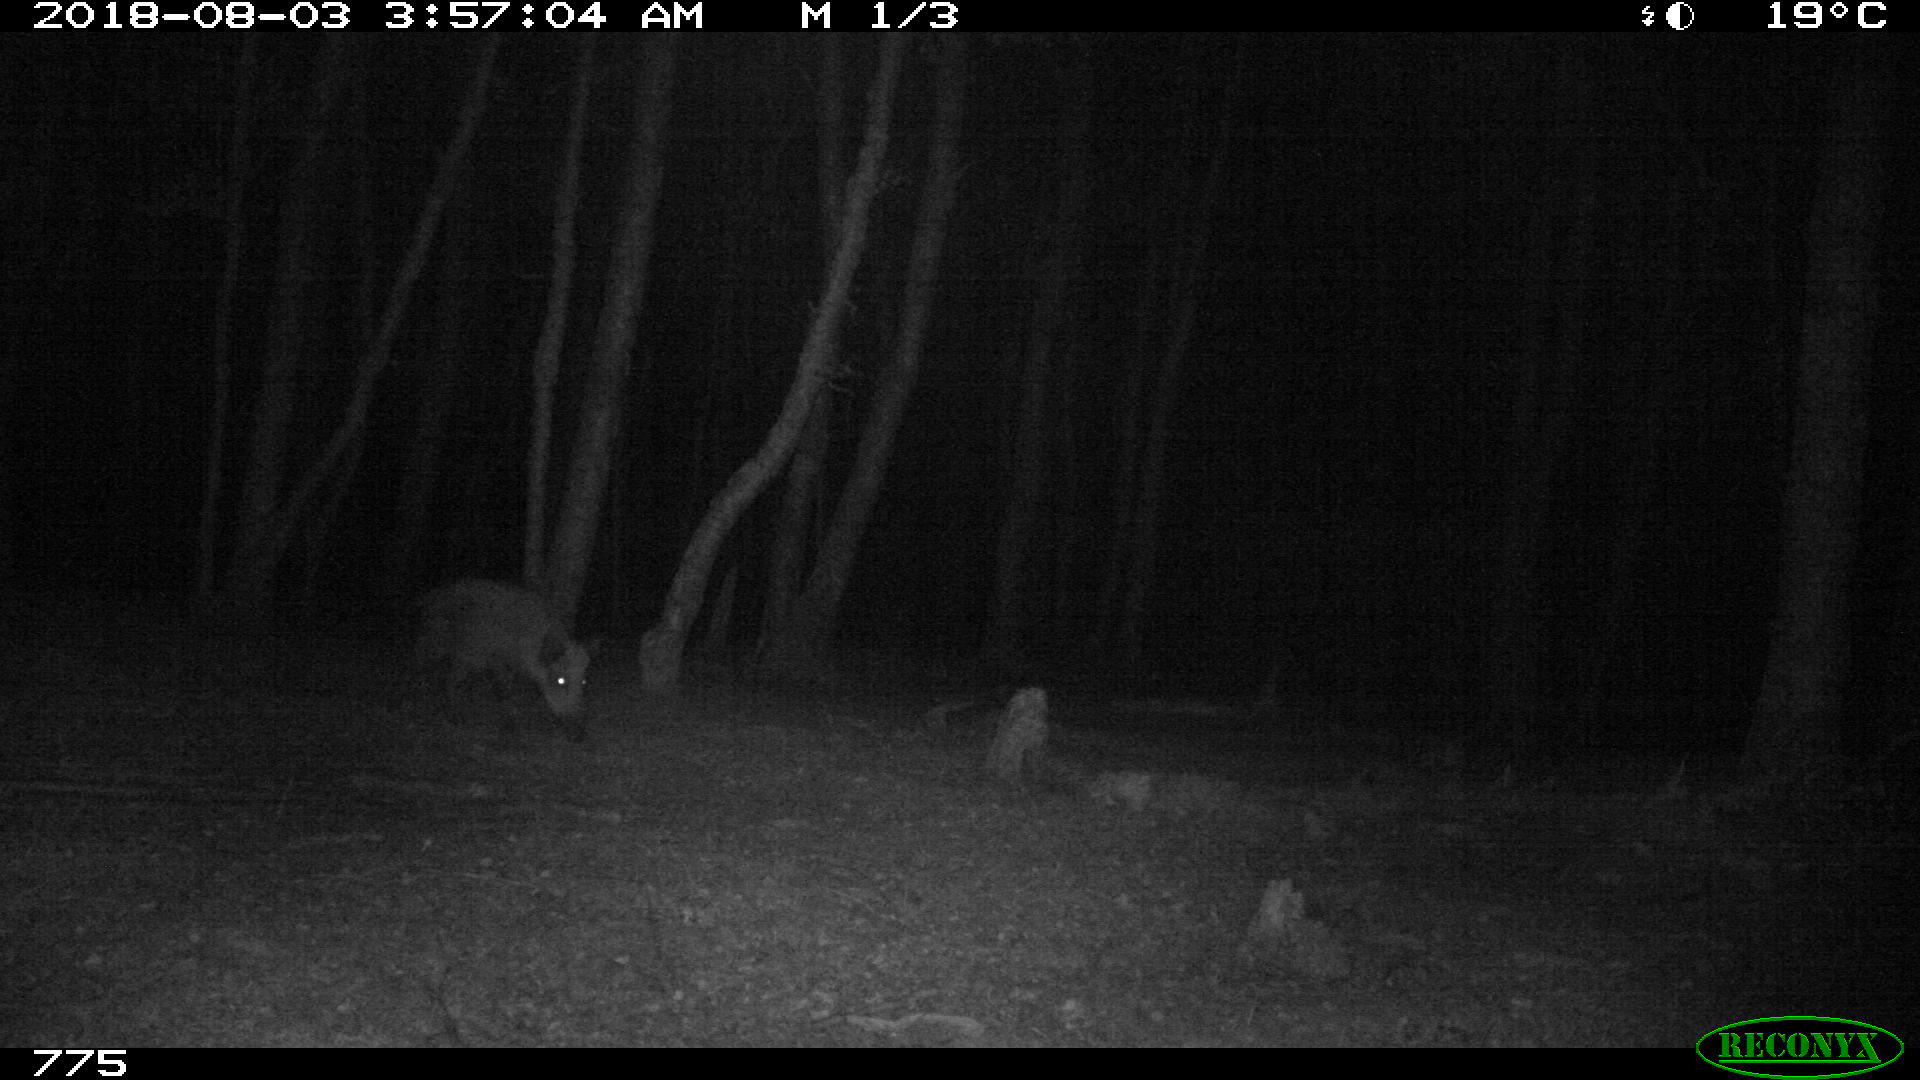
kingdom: Animalia
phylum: Chordata
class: Mammalia
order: Artiodactyla
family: Suidae
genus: Sus
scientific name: Sus scrofa
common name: Wild boar
